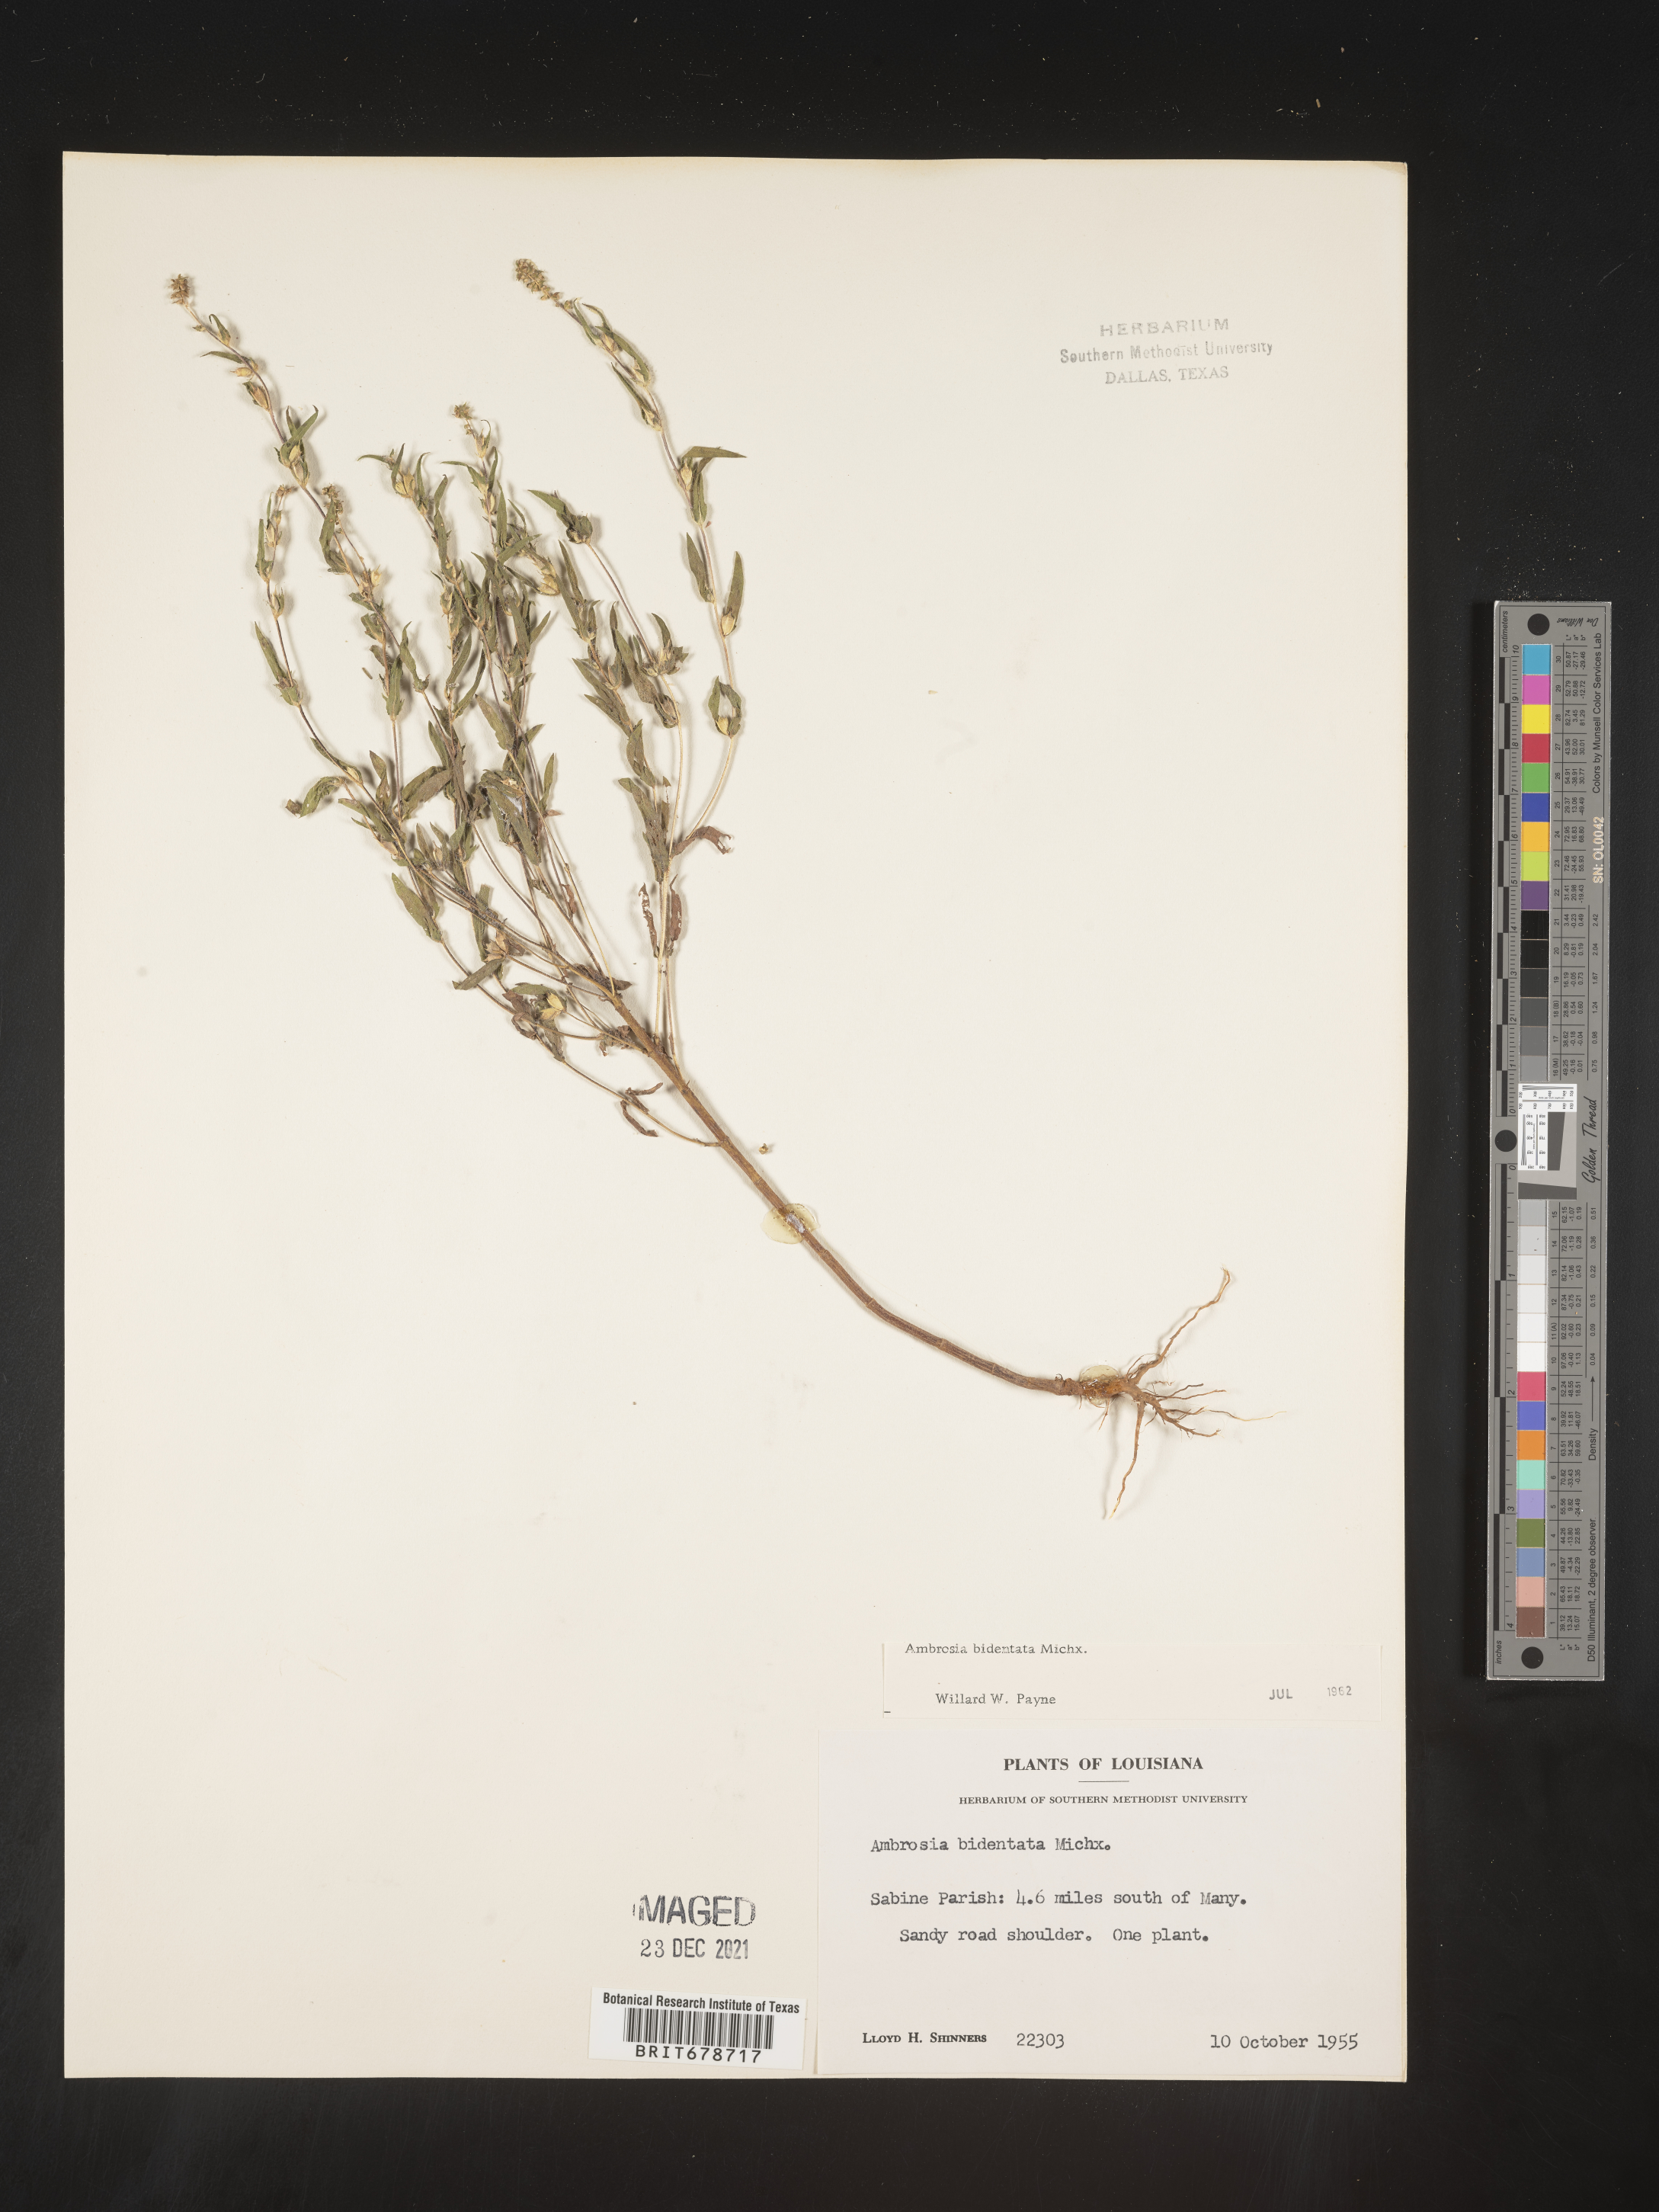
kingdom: Plantae
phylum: Tracheophyta
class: Magnoliopsida
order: Asterales
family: Asteraceae
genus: Ambrosia
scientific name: Ambrosia bidentata
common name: Southern ragweed
